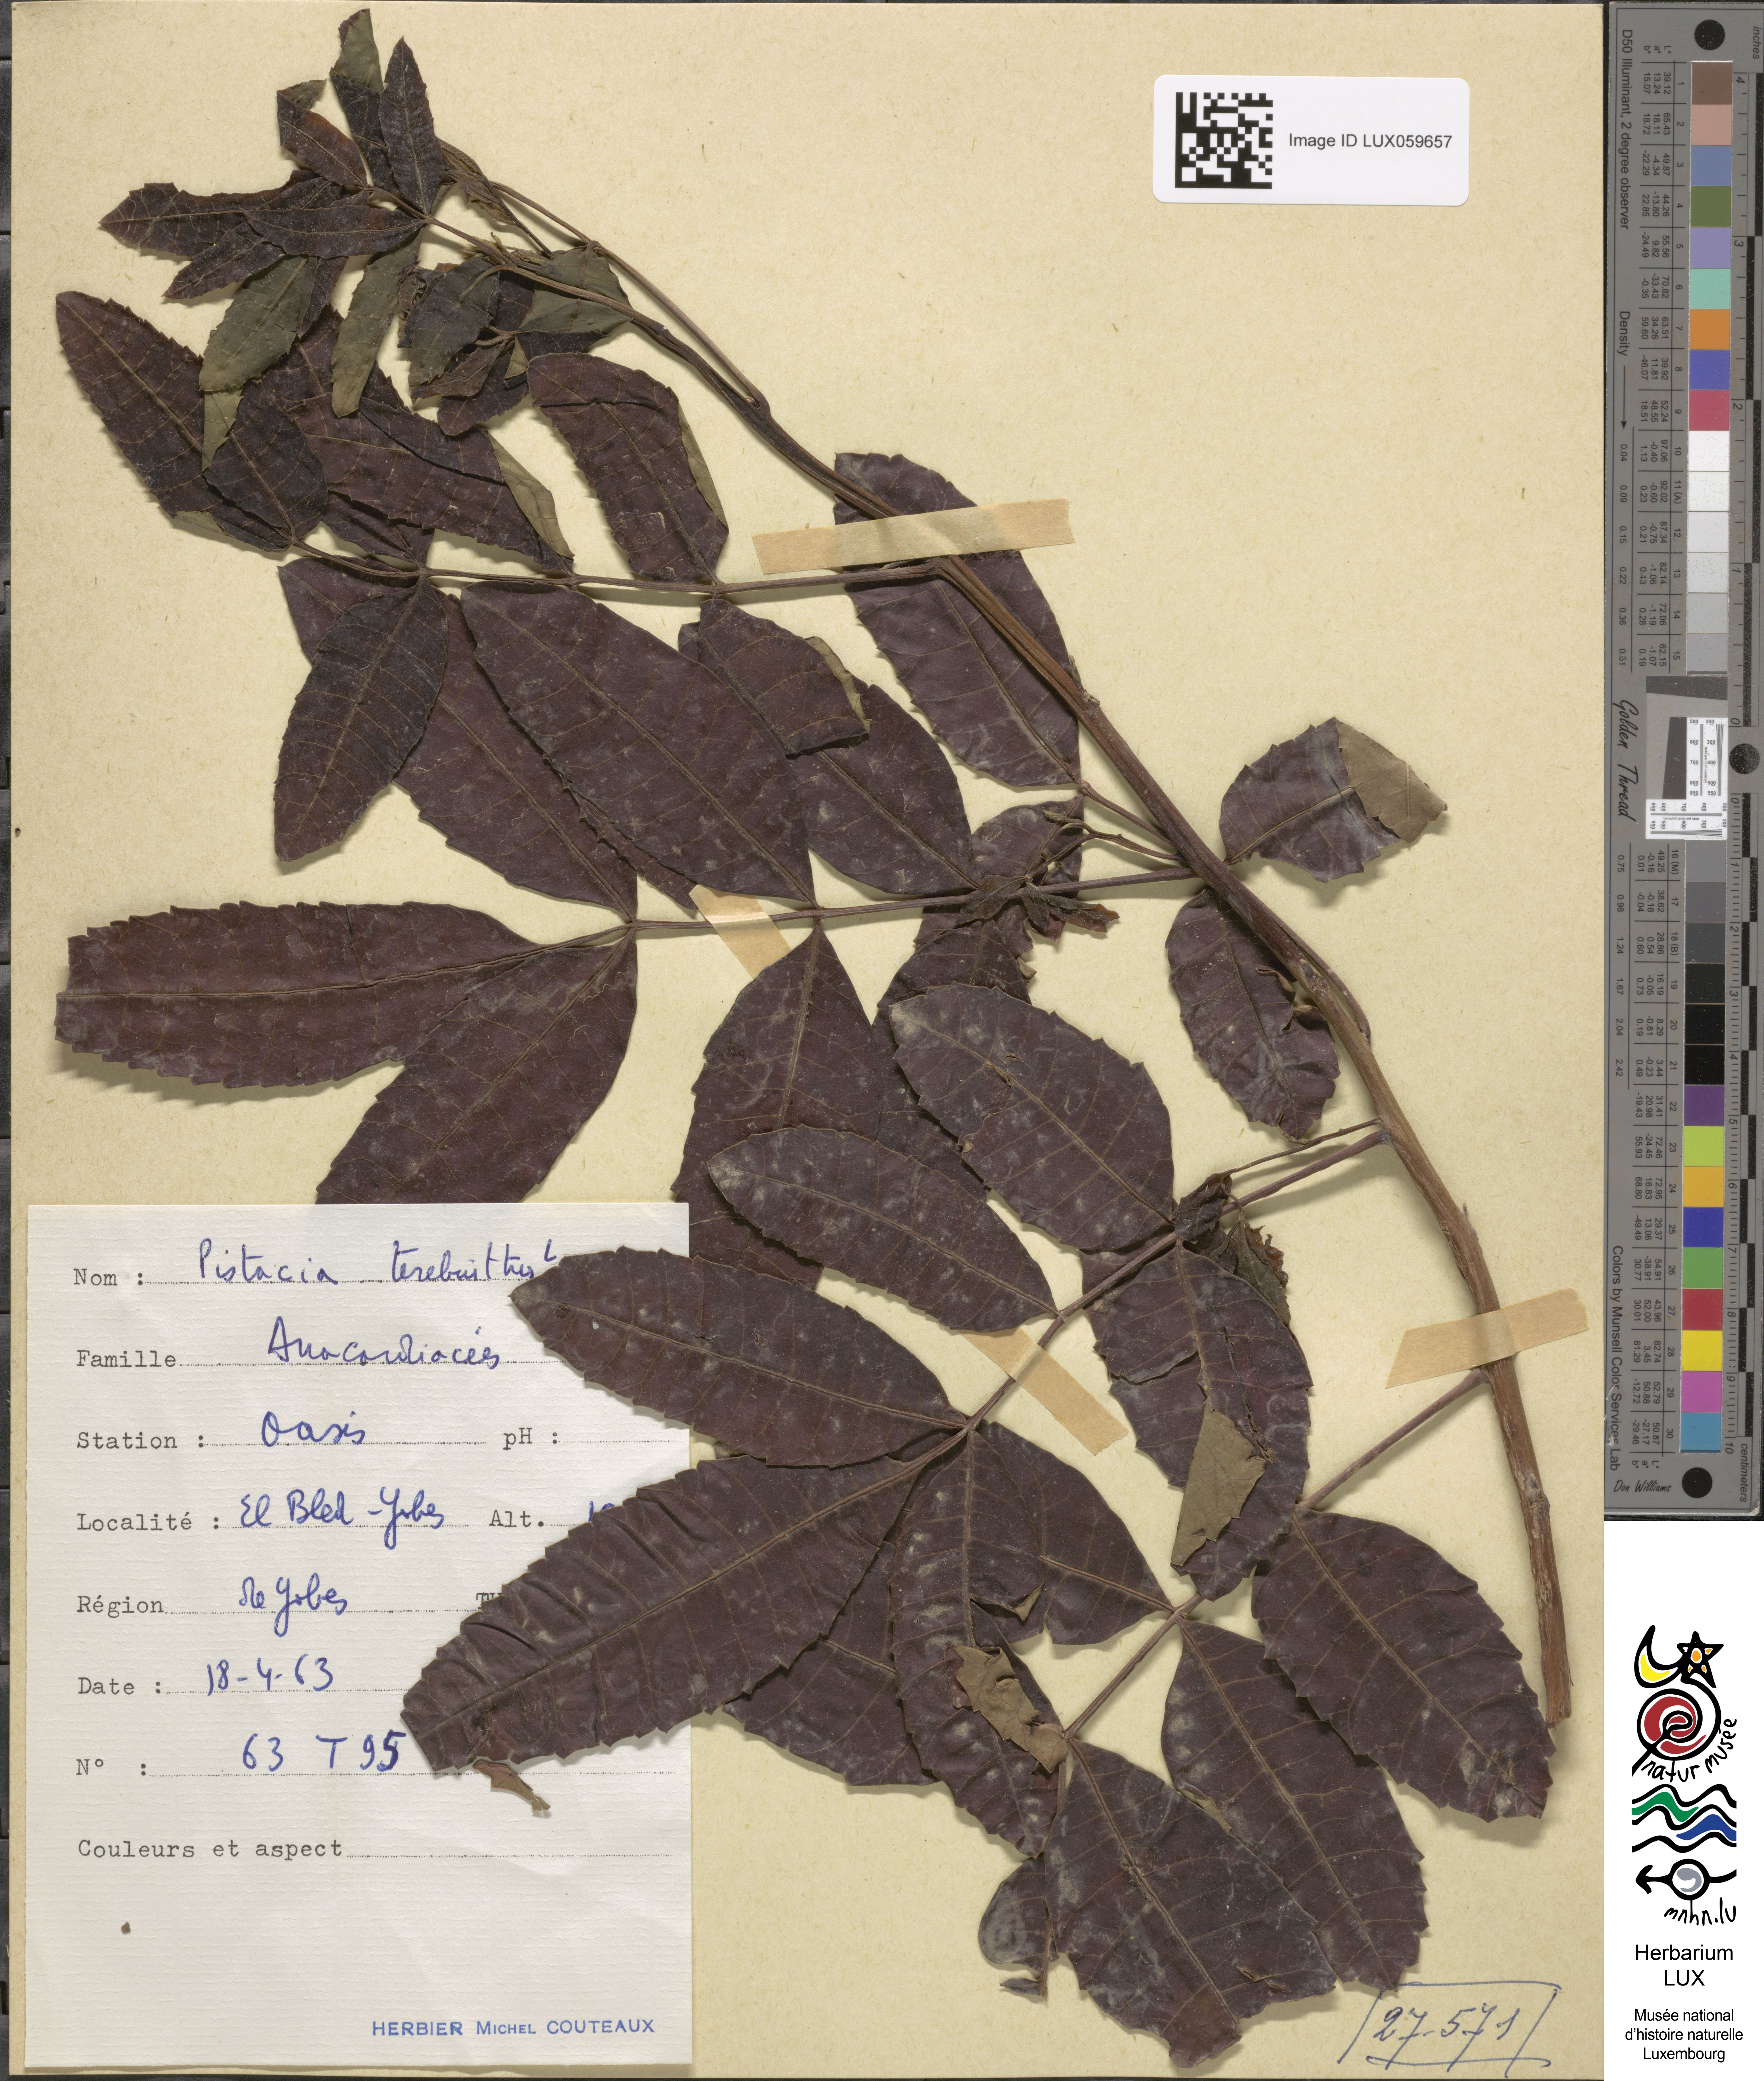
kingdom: Plantae
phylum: Tracheophyta
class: Magnoliopsida
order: Sapindales
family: Anacardiaceae
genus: Pistacia
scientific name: Pistacia terebinthus
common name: Terebinth
